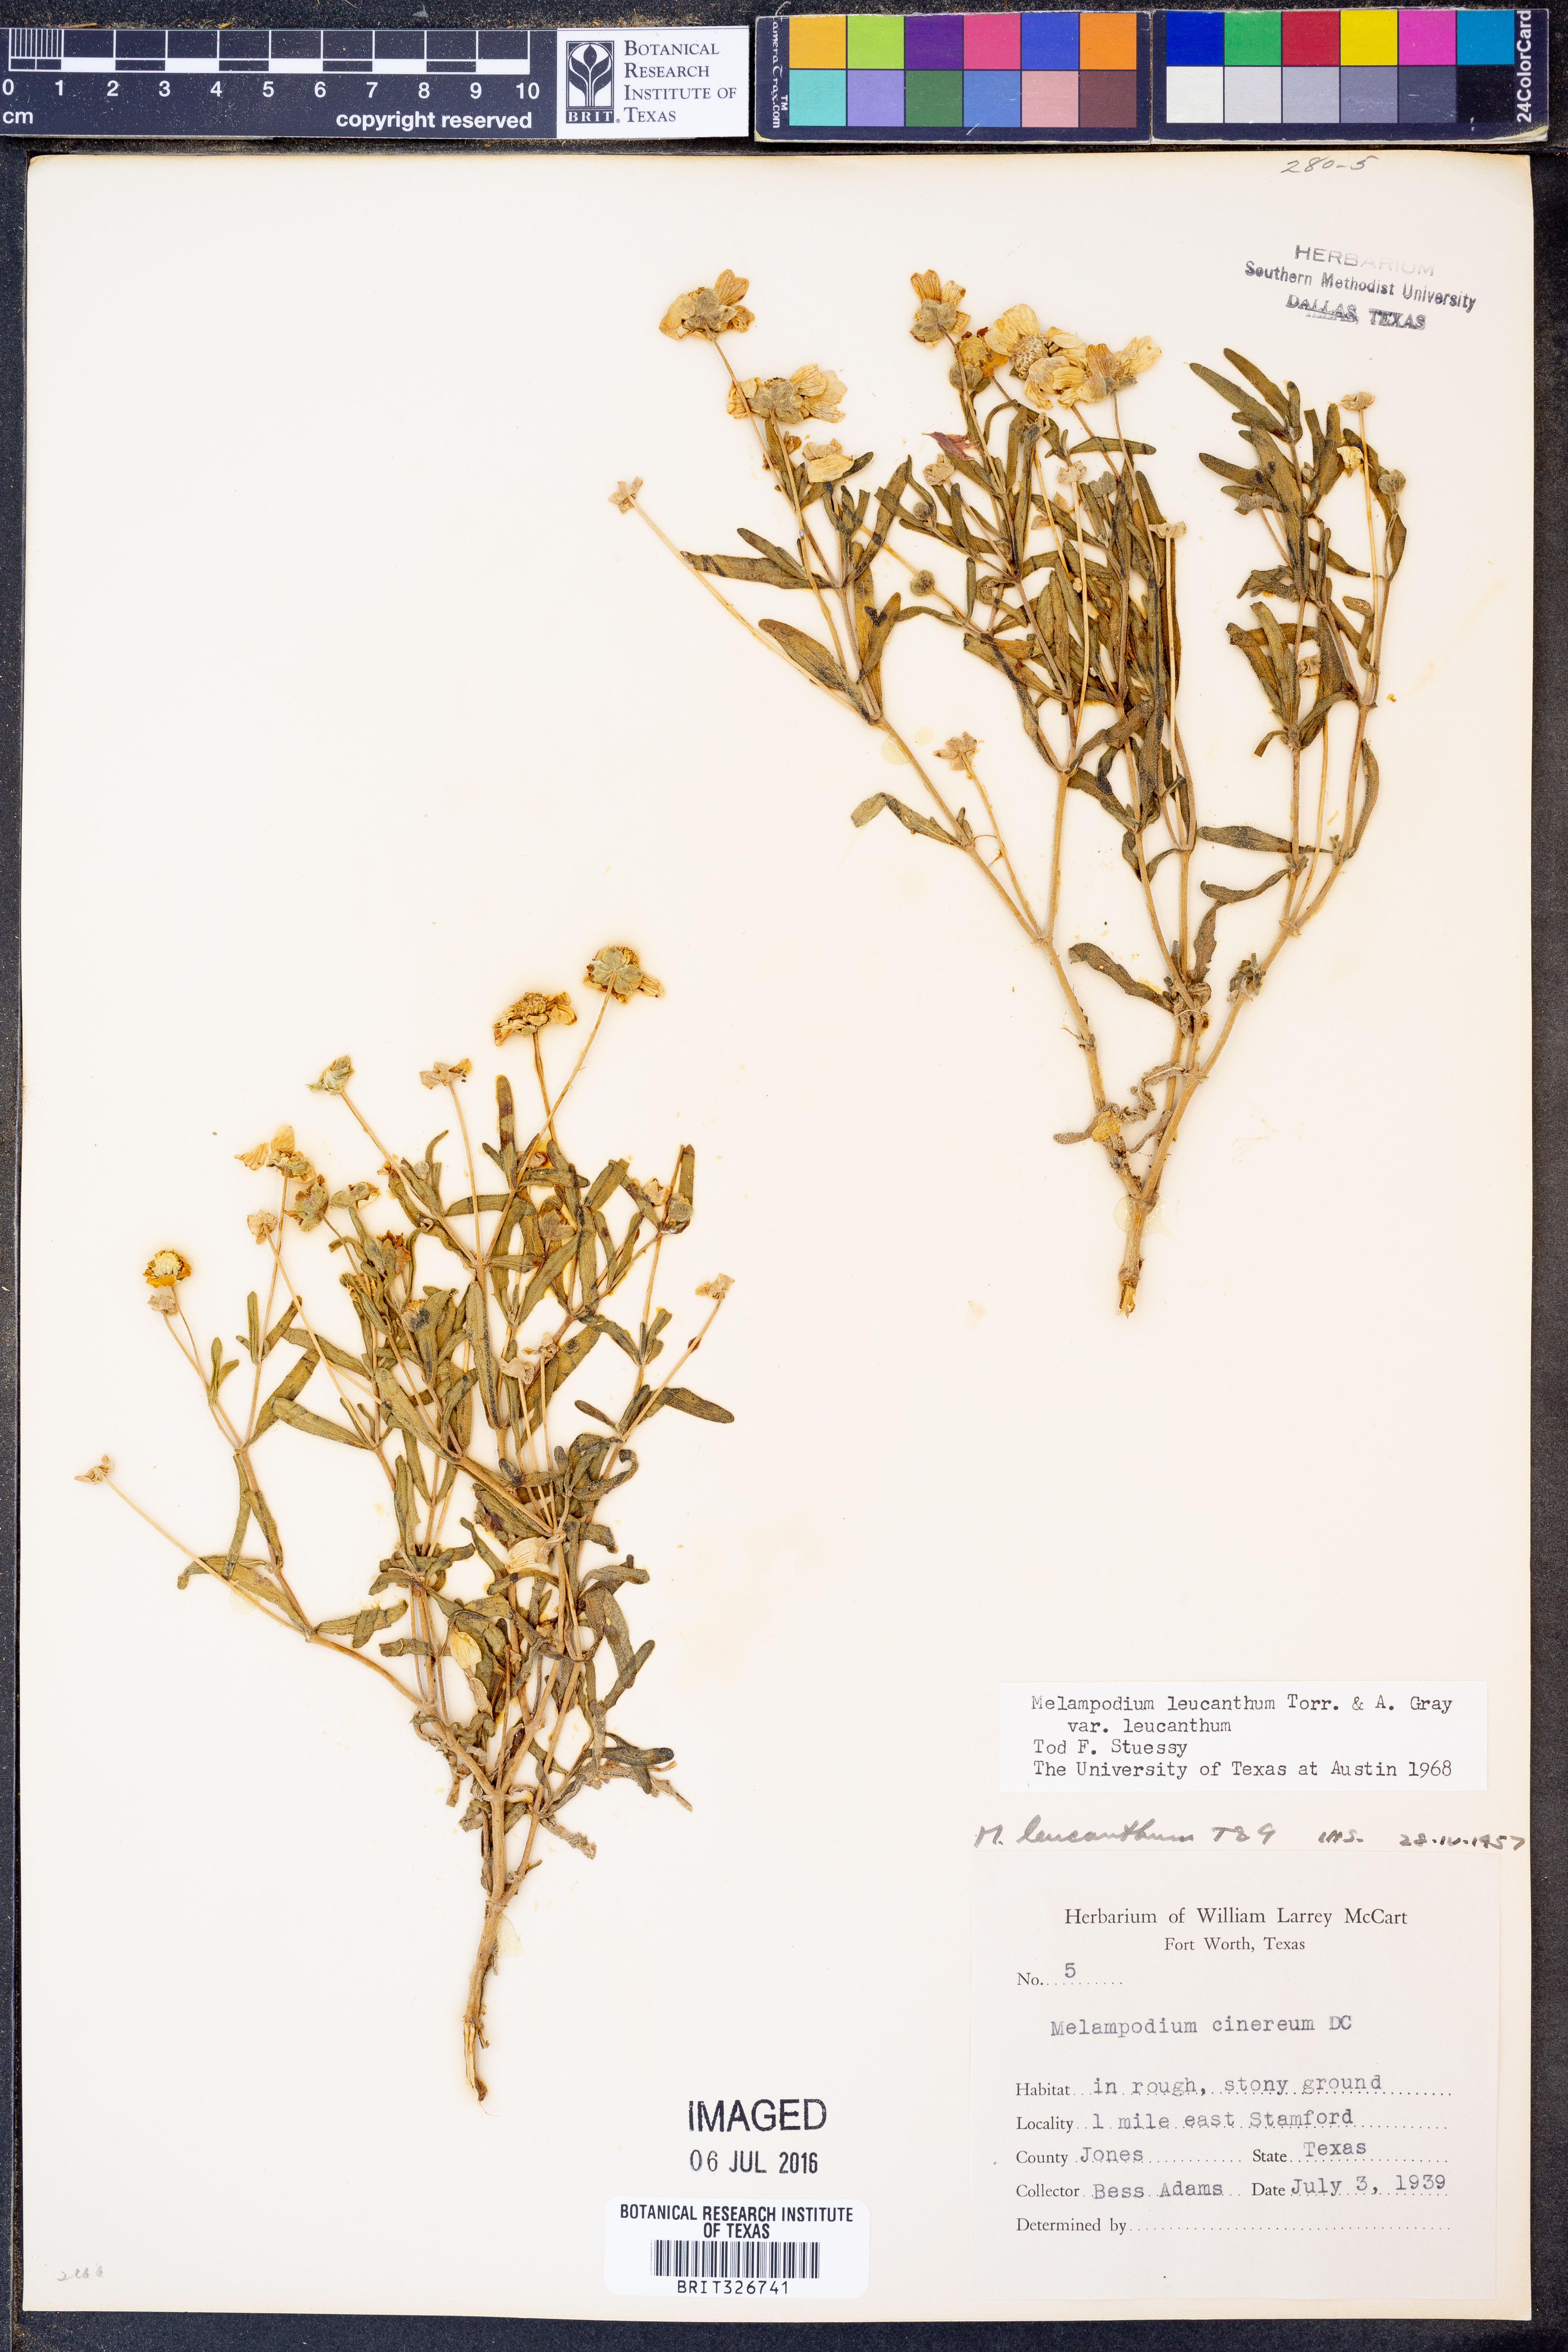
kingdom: Plantae
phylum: Tracheophyta
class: Magnoliopsida
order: Asterales
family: Asteraceae
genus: Melampodium
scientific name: Melampodium leucanthum
